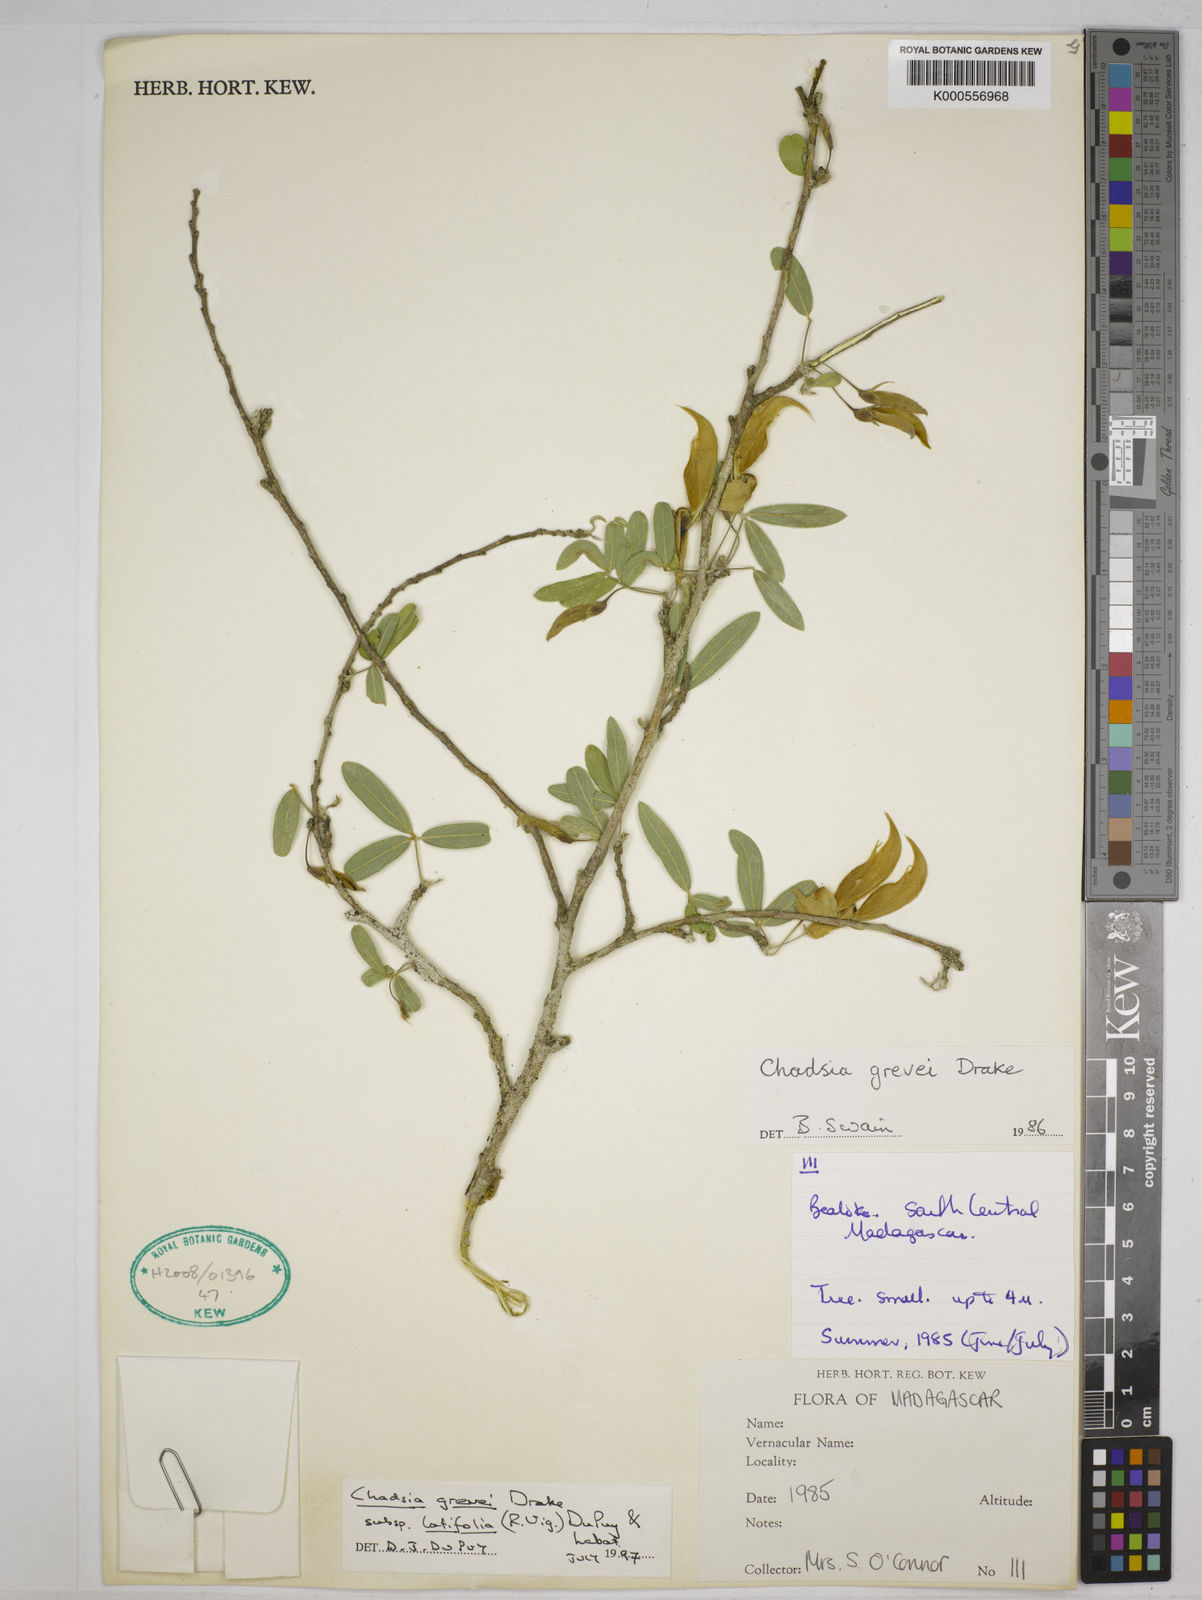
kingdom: Plantae
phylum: Tracheophyta
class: Magnoliopsida
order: Fabales
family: Fabaceae
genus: Chadsia
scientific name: Chadsia grevei
